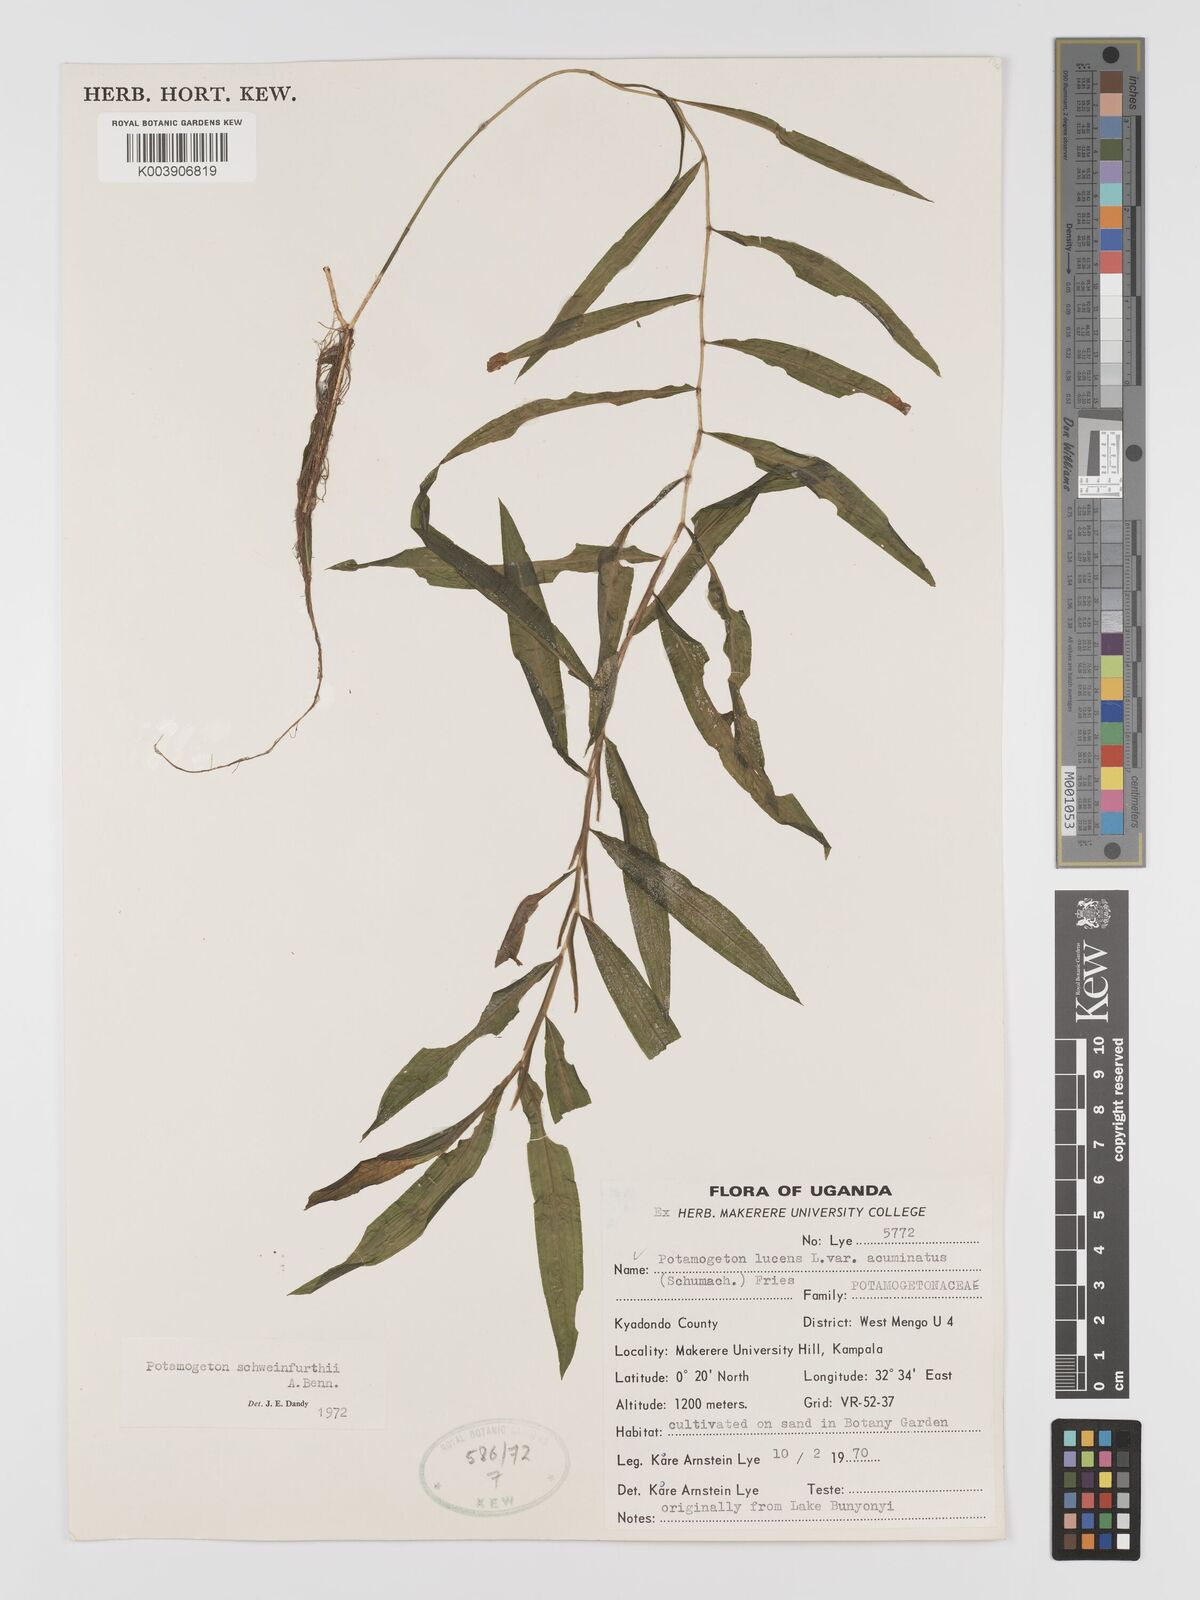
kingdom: Plantae
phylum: Tracheophyta
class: Liliopsida
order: Alismatales
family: Potamogetonaceae
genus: Potamogeton
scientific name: Potamogeton schweinfurthii
